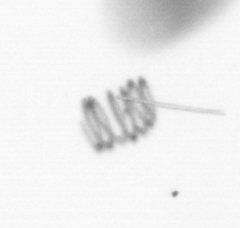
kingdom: Chromista
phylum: Ochrophyta
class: Bacillariophyceae
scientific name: Bacillariophyceae
